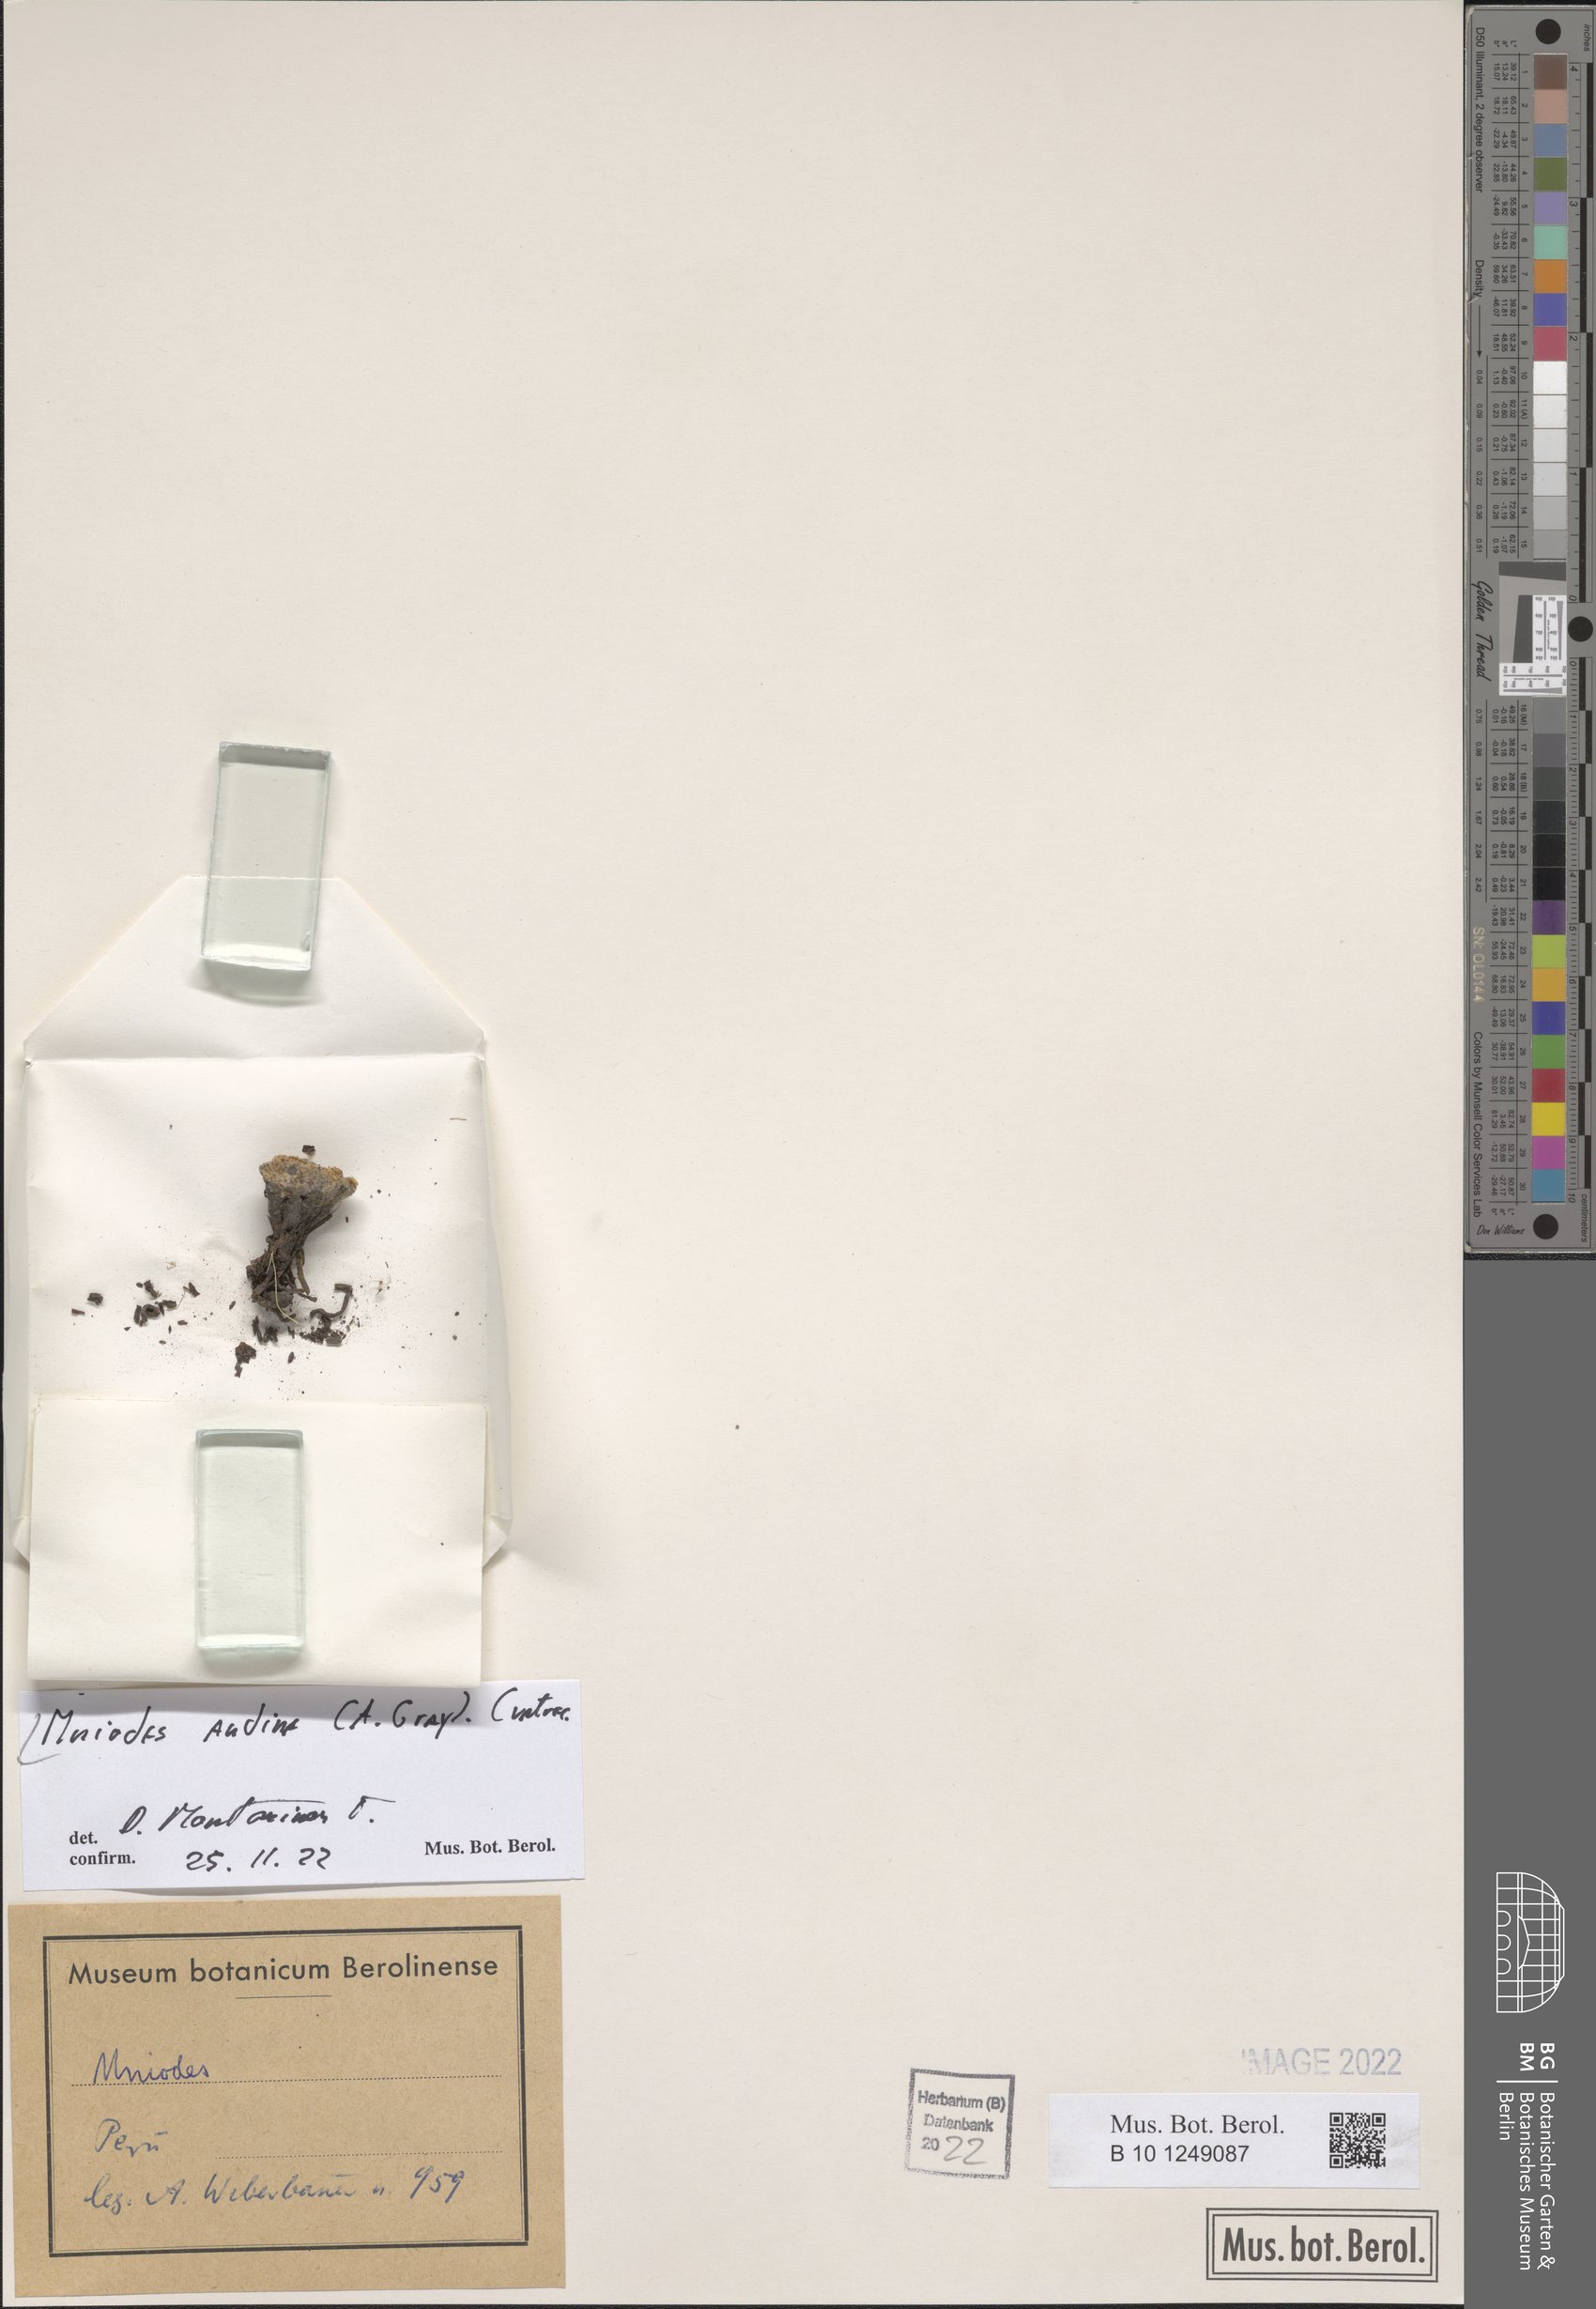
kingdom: Plantae
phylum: Tracheophyta
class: Magnoliopsida
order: Asterales
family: Asteraceae
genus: Mniodes
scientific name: Mniodes andina
